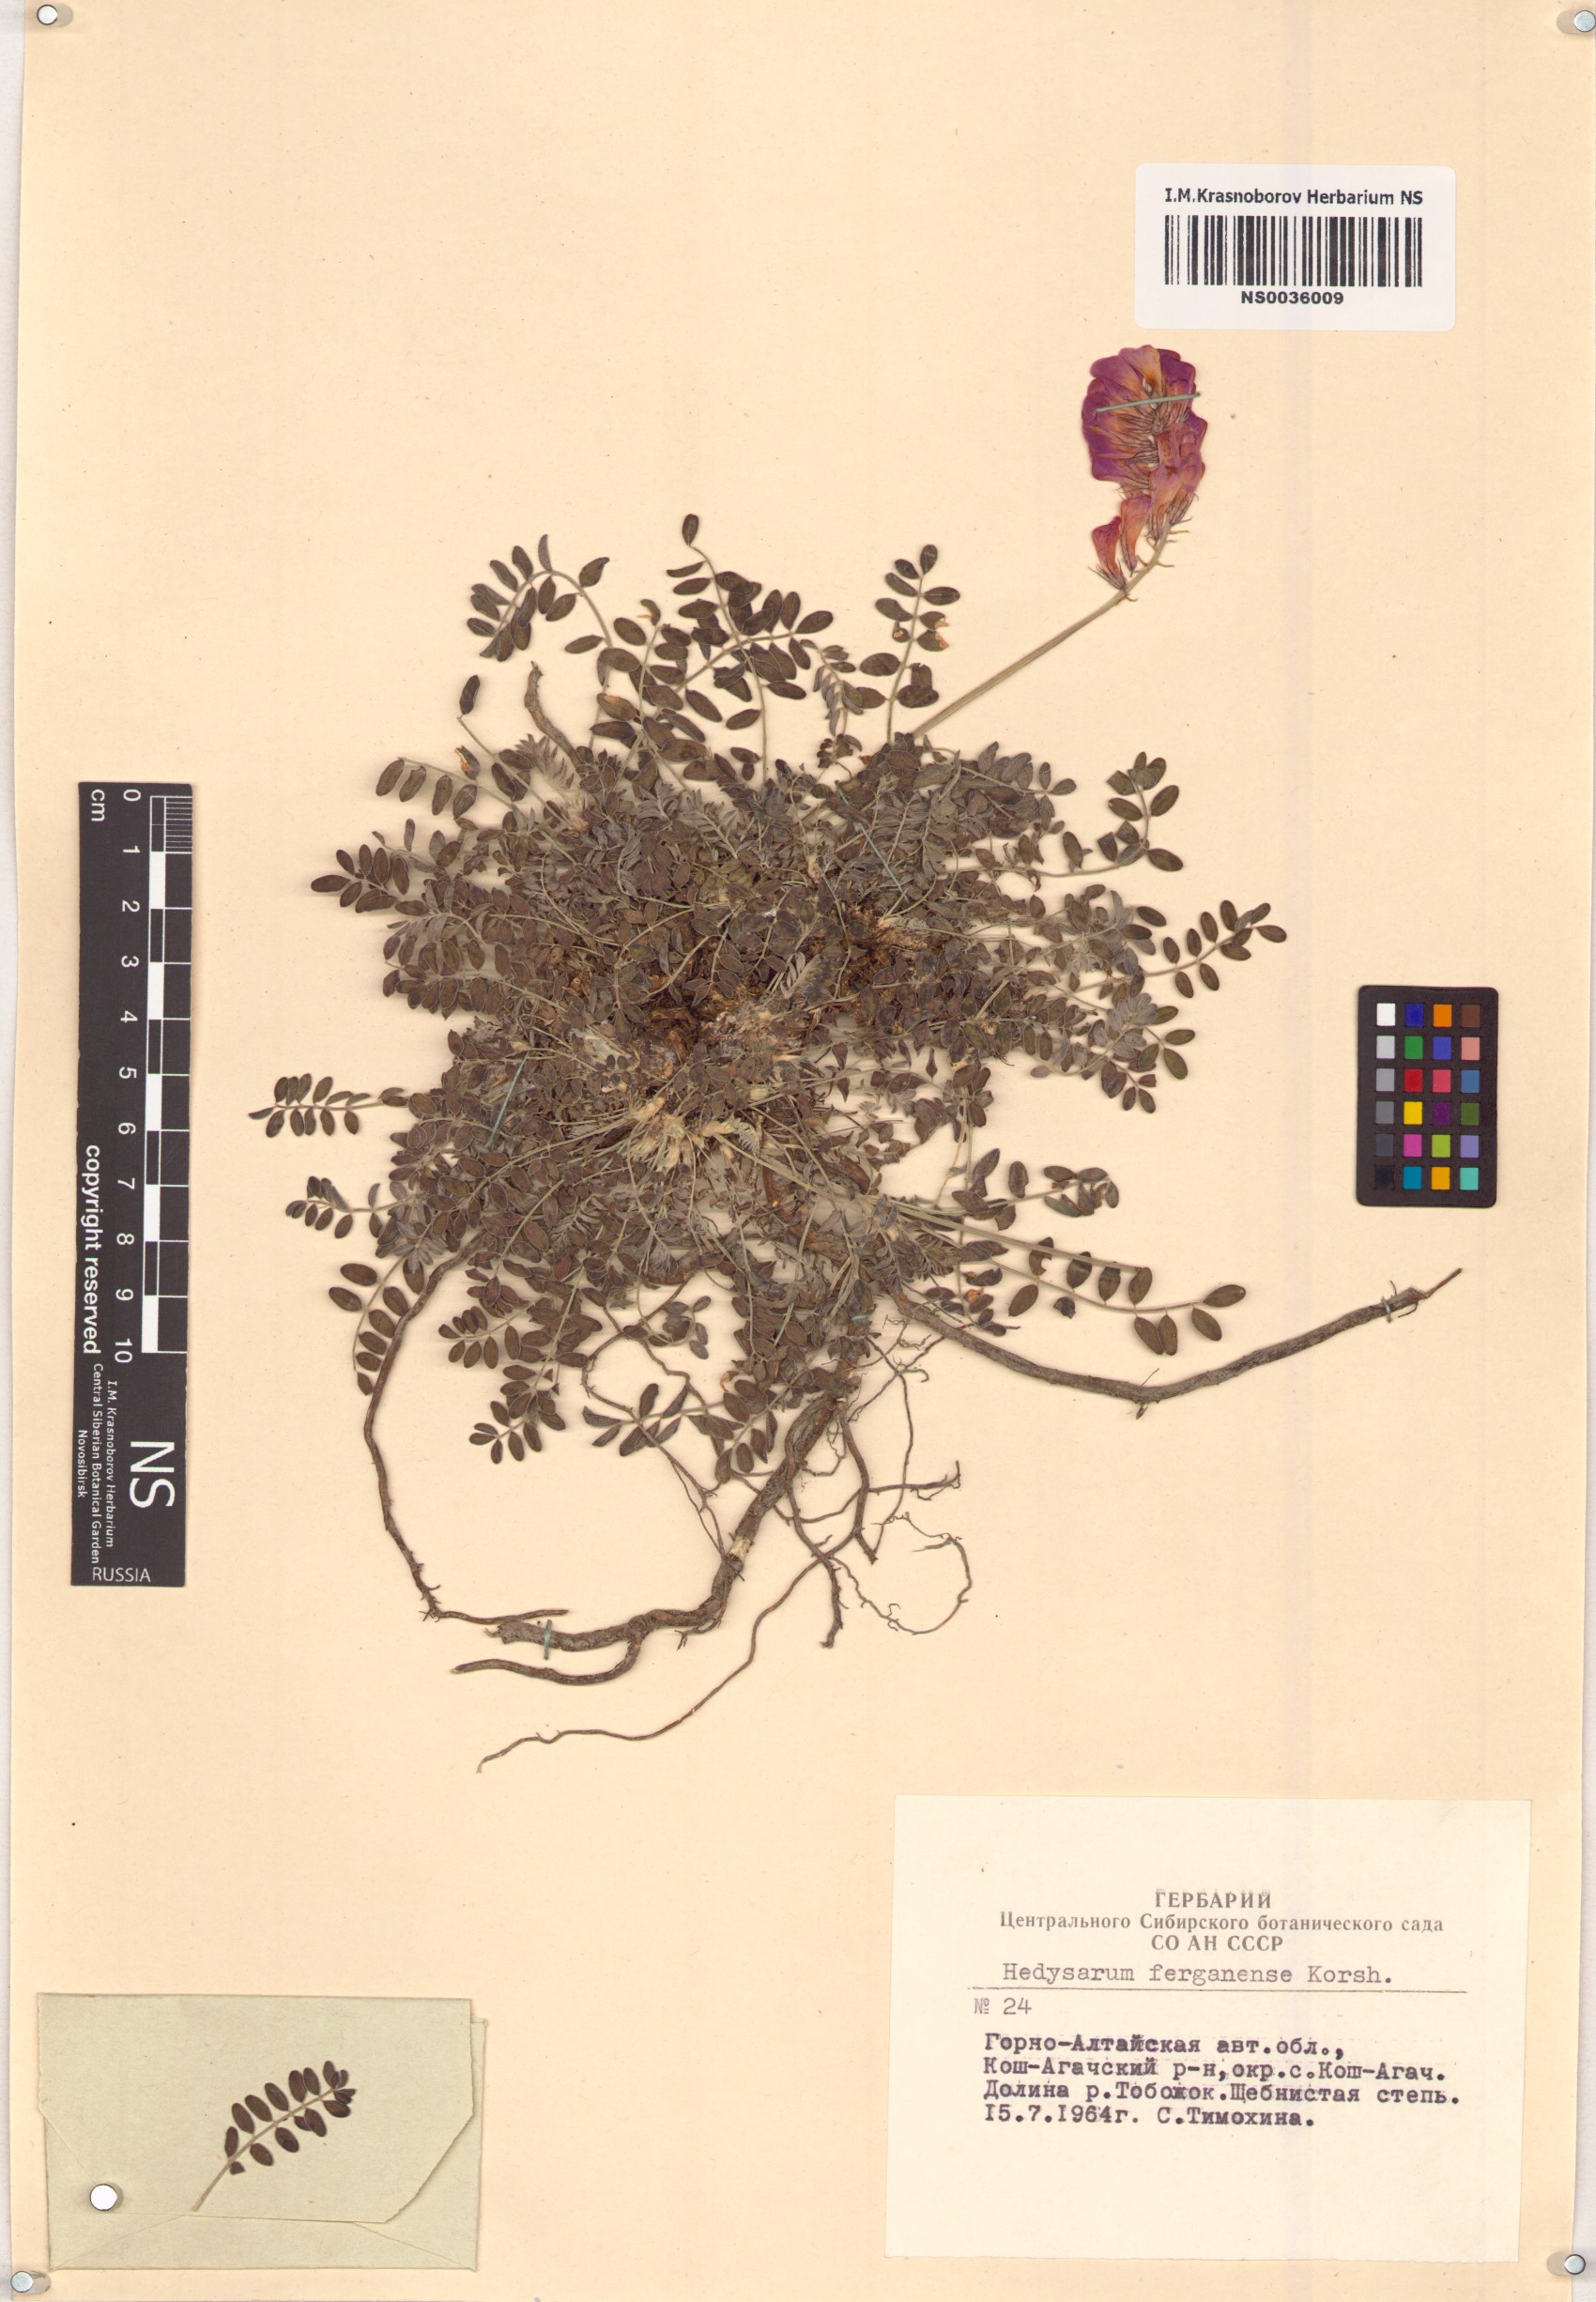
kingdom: Plantae
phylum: Tracheophyta
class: Magnoliopsida
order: Fabales
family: Fabaceae
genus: Hedysarum
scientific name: Hedysarum ferganense
